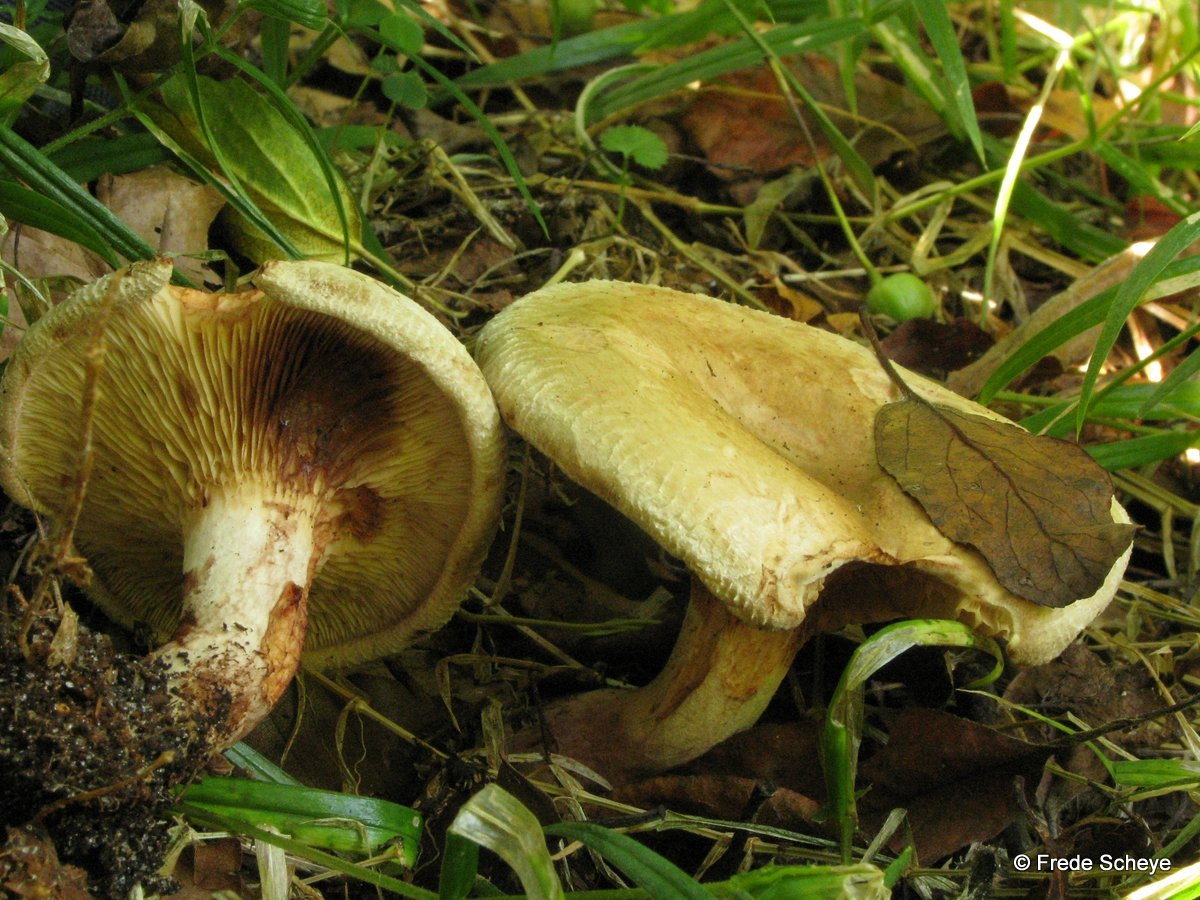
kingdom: Fungi
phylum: Basidiomycota
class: Agaricomycetes
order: Boletales
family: Paxillaceae
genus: Paxillus
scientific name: Paxillus involutus
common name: almindelig netbladhat
